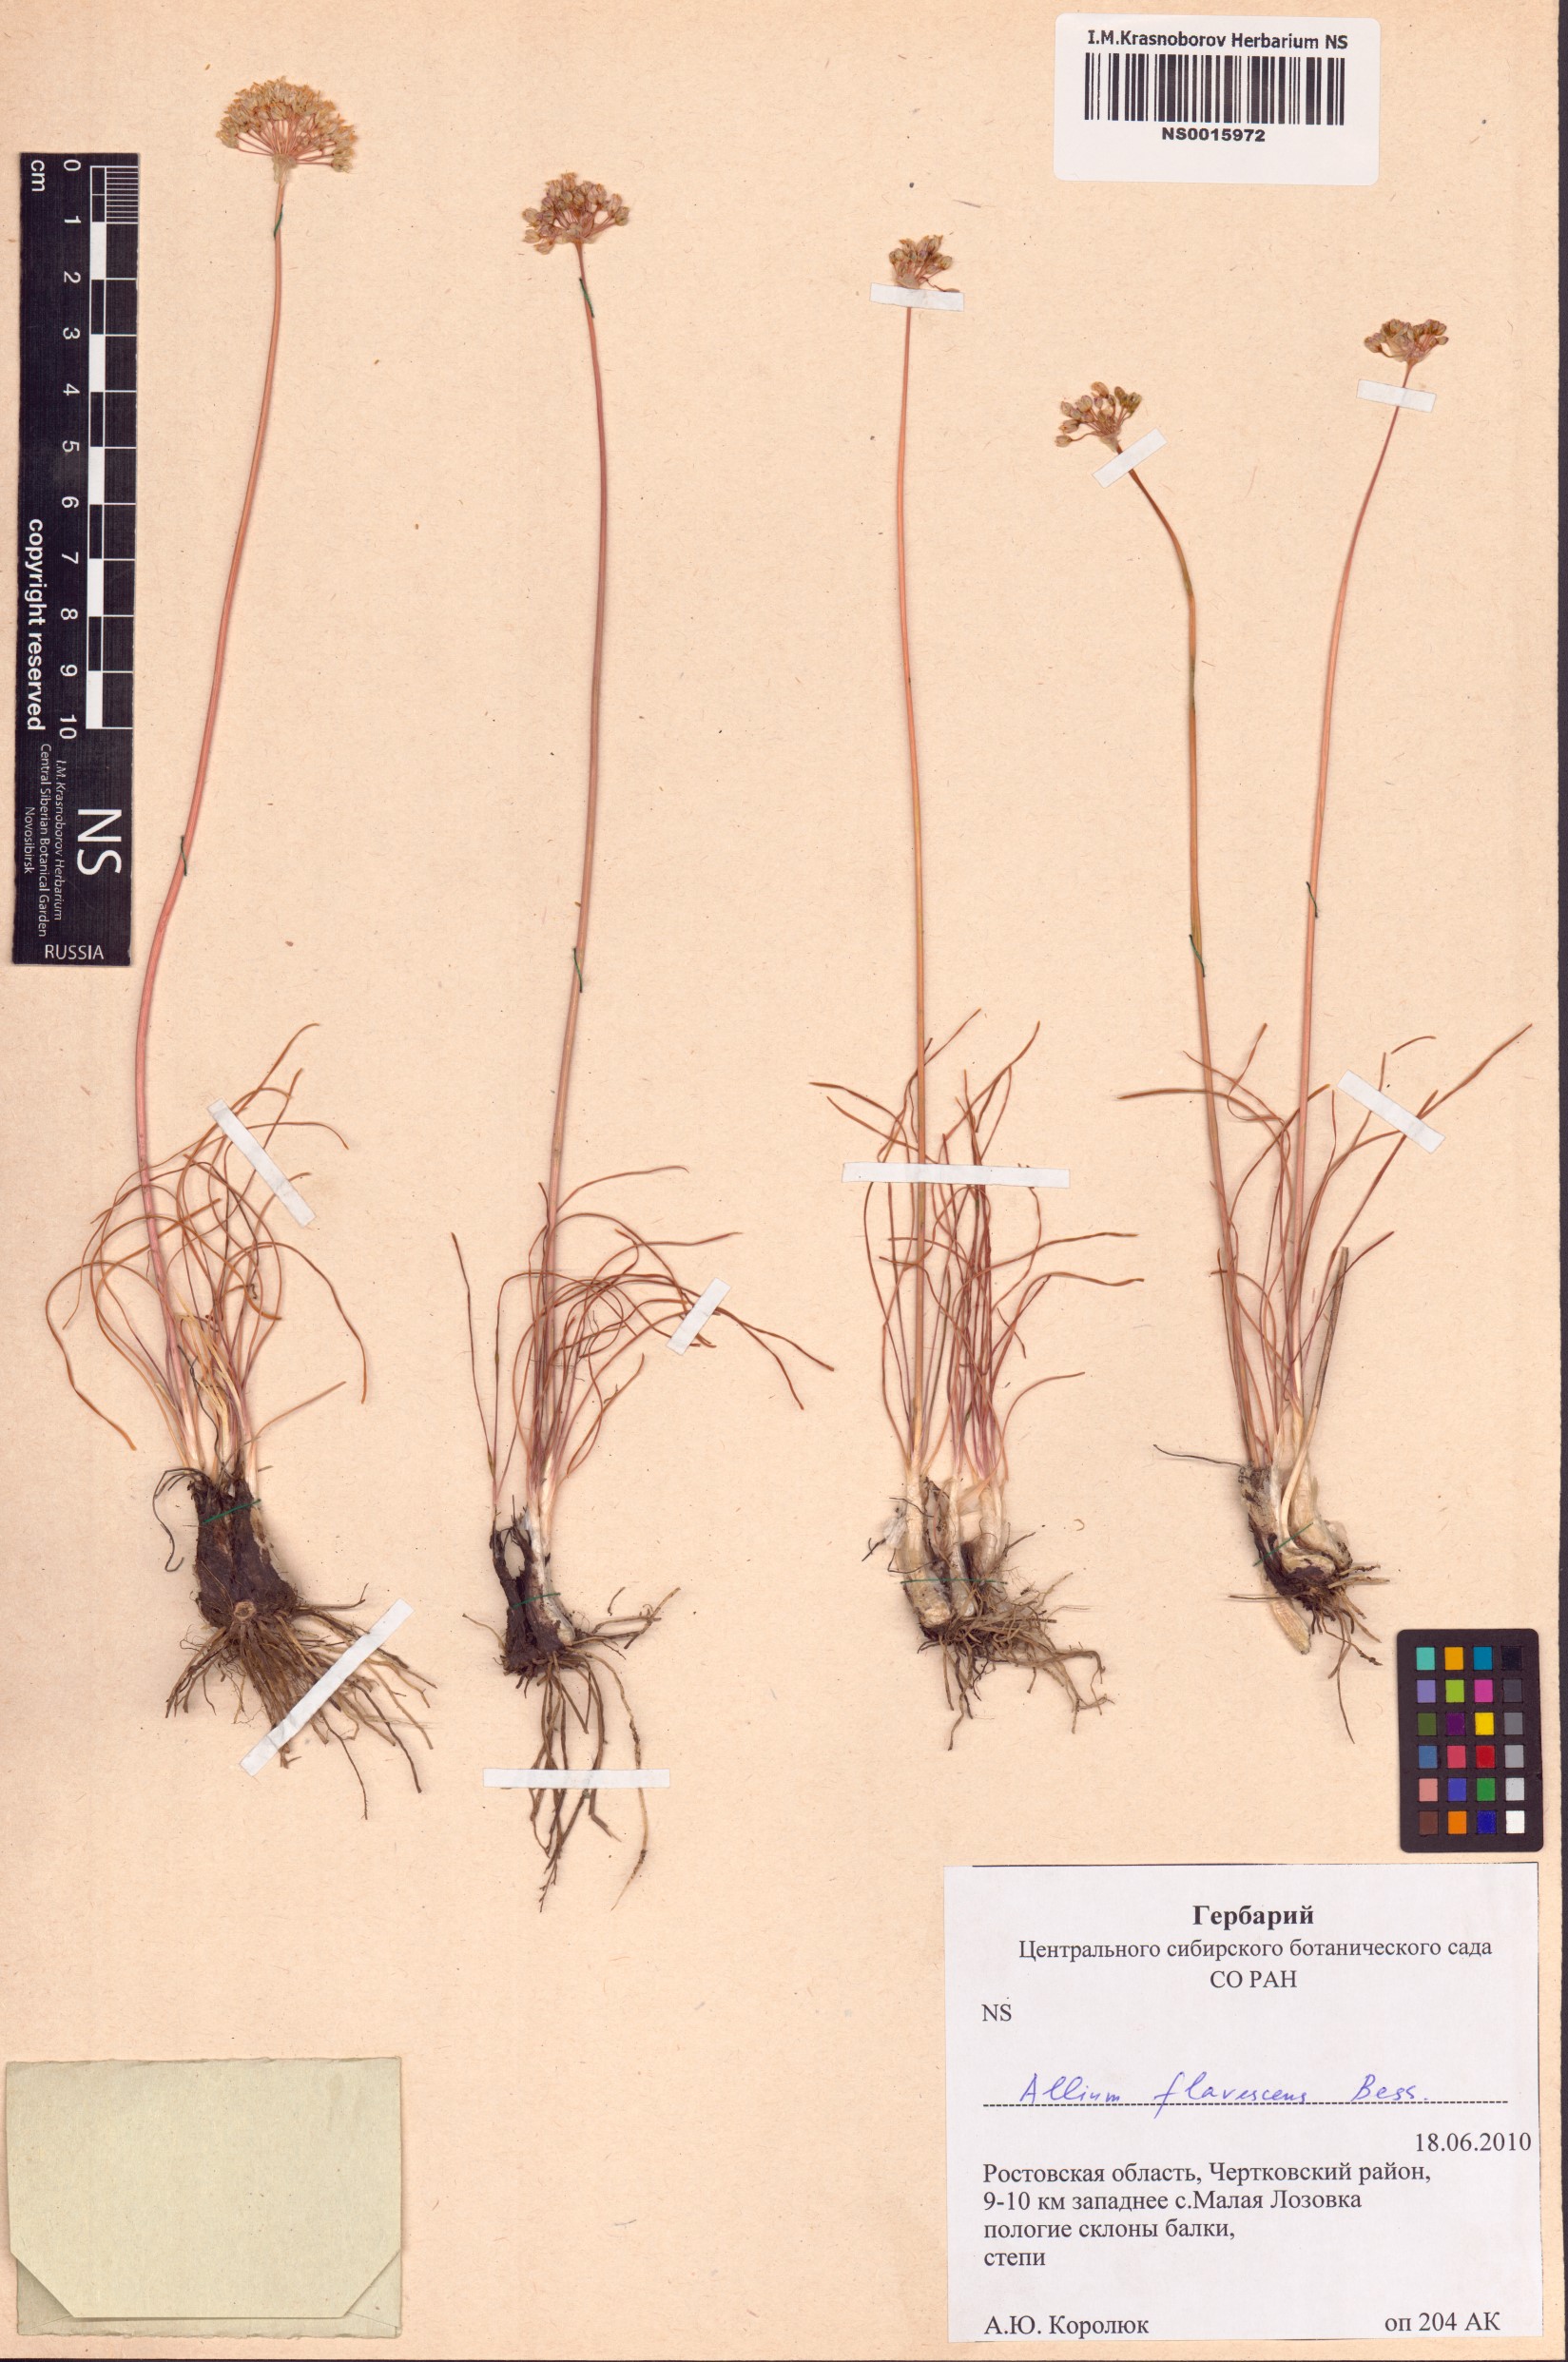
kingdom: Plantae
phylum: Tracheophyta
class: Liliopsida
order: Asparagales
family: Amaryllidaceae
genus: Allium
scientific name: Allium flavescens
